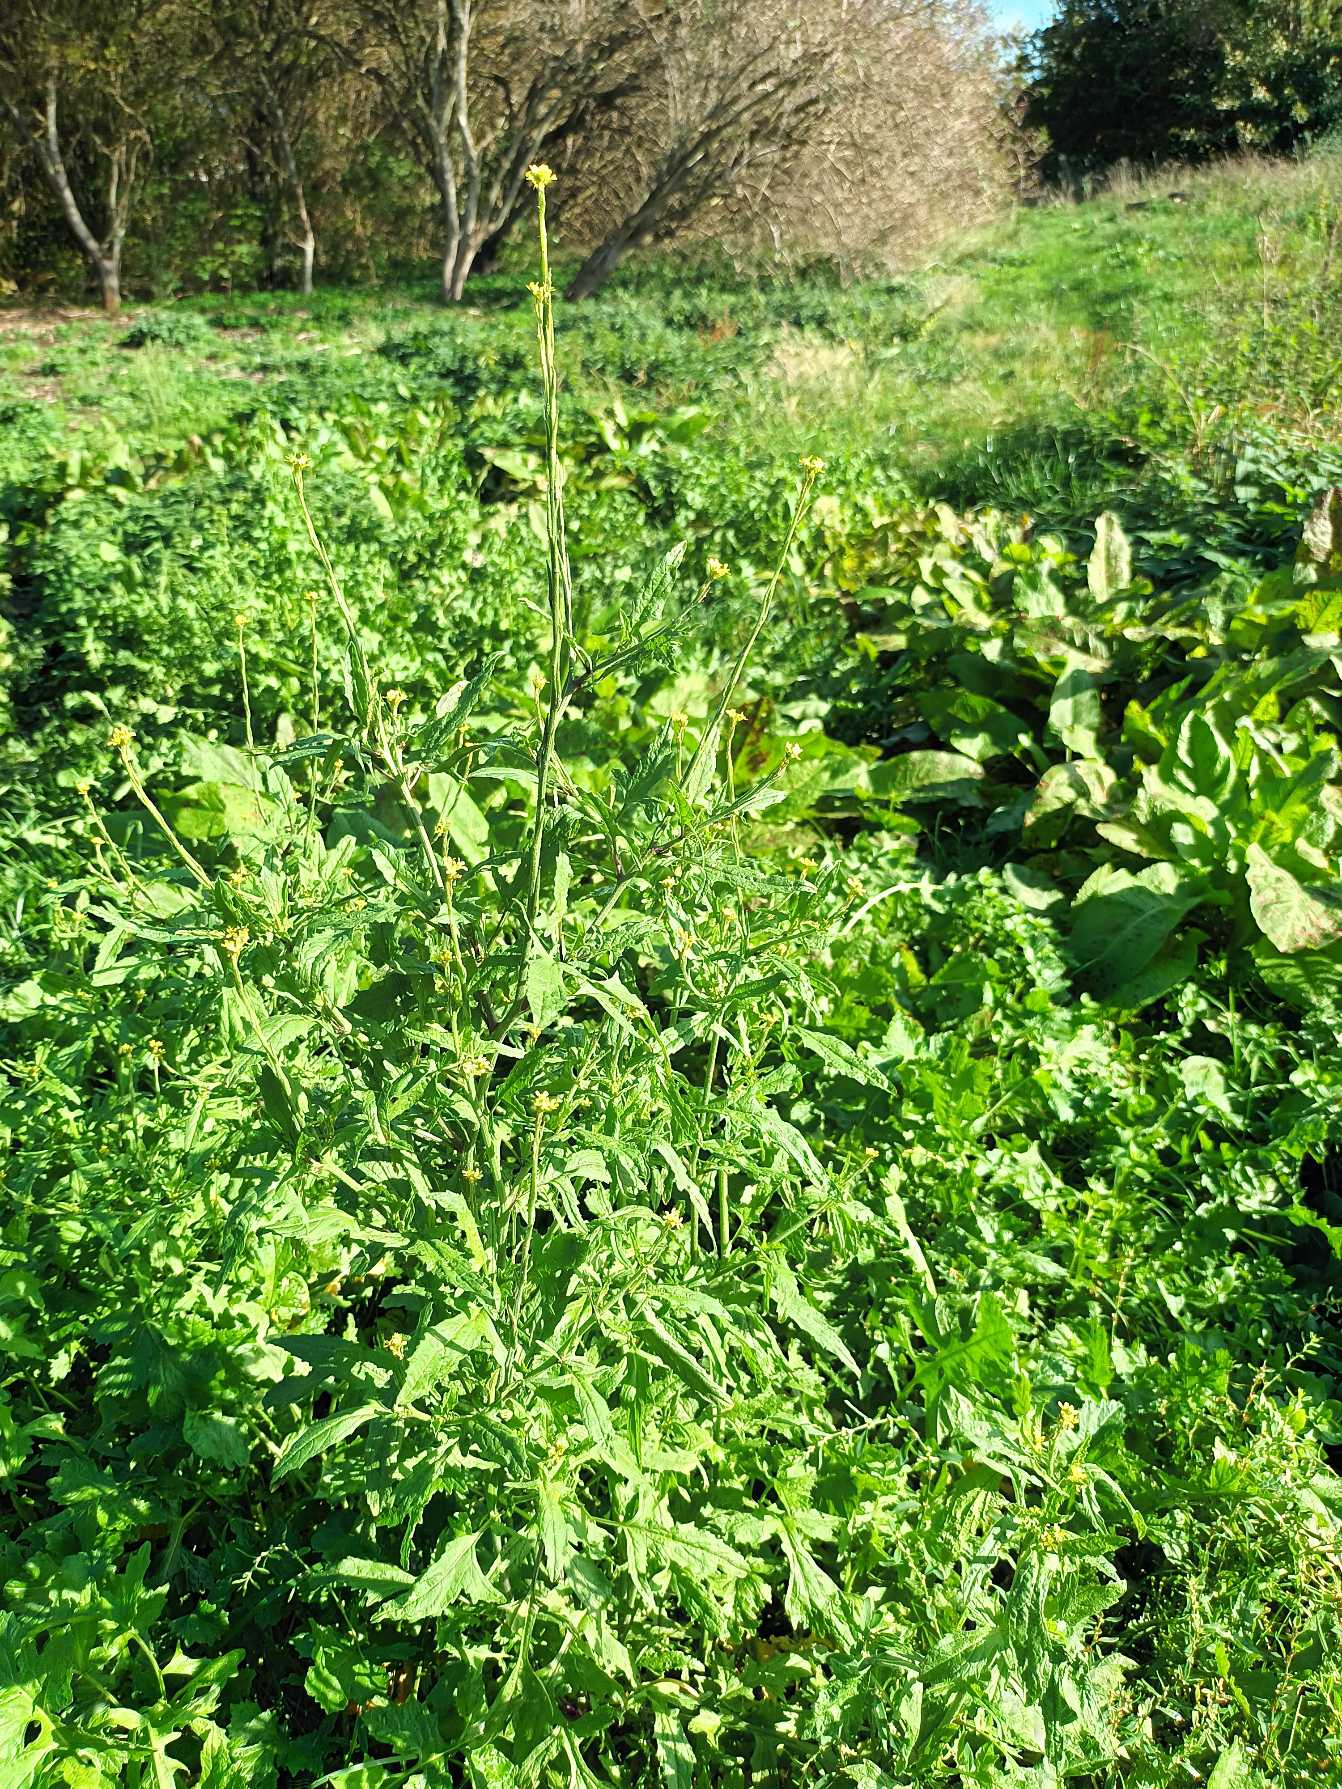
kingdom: Plantae
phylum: Tracheophyta
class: Magnoliopsida
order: Brassicales
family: Brassicaceae
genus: Sisymbrium
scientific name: Sisymbrium officinale
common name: Rank vejsennep
